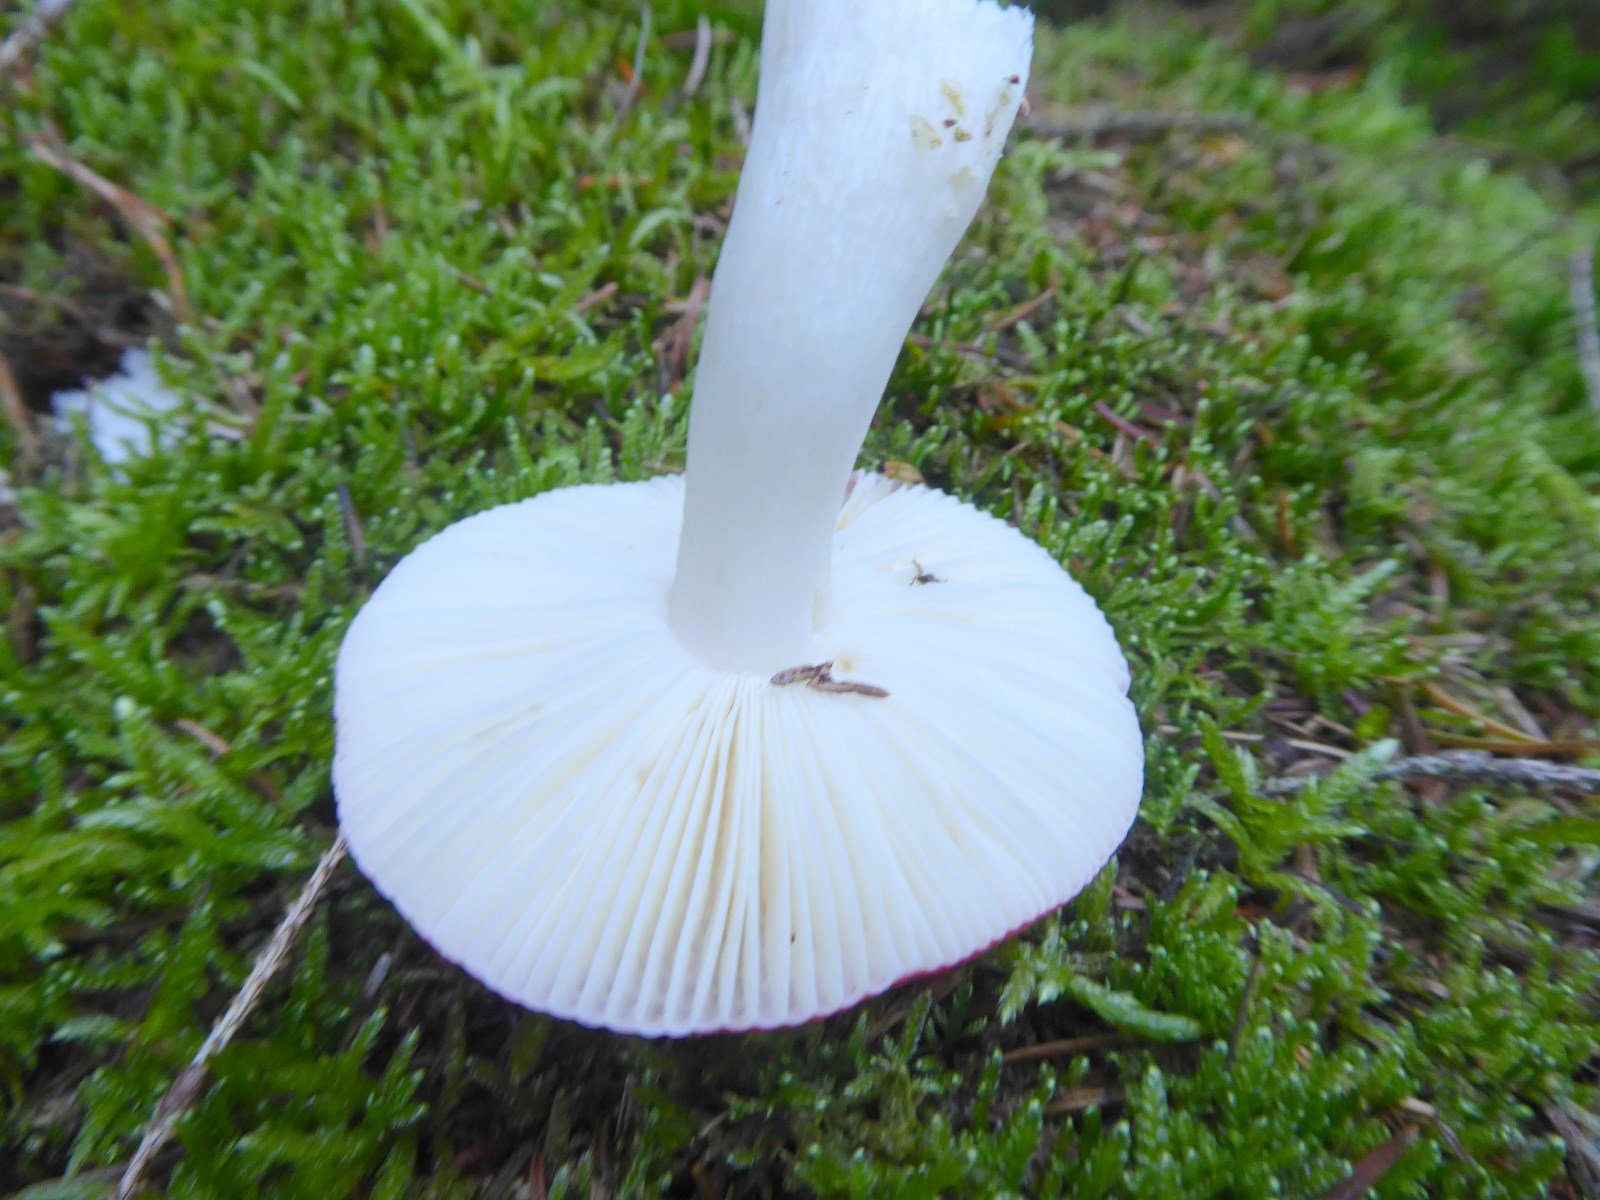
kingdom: Fungi
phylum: Basidiomycota
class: Agaricomycetes
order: Russulales
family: Russulaceae
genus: Russula
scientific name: Russula emetica
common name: stor gift-skørhat
